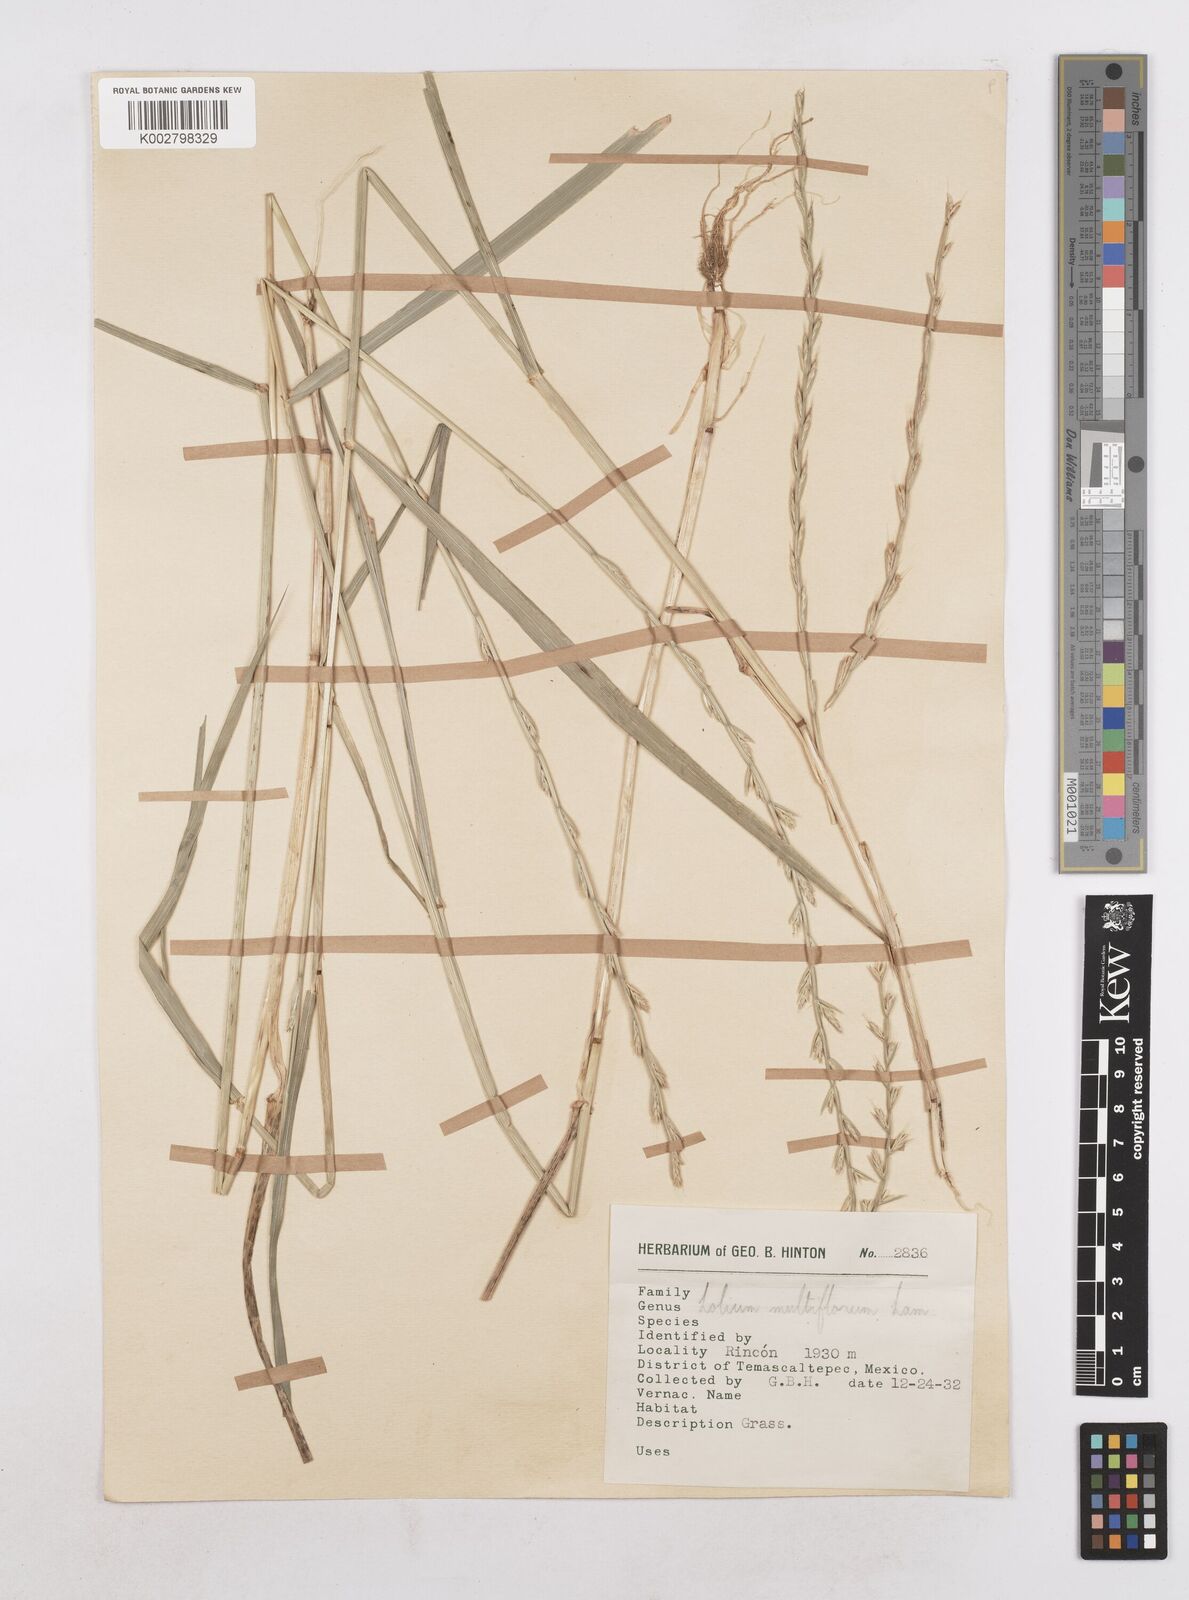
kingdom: Plantae
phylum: Tracheophyta
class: Liliopsida
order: Poales
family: Poaceae
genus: Lolium
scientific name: Lolium multiflorum
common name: Annual ryegrass
